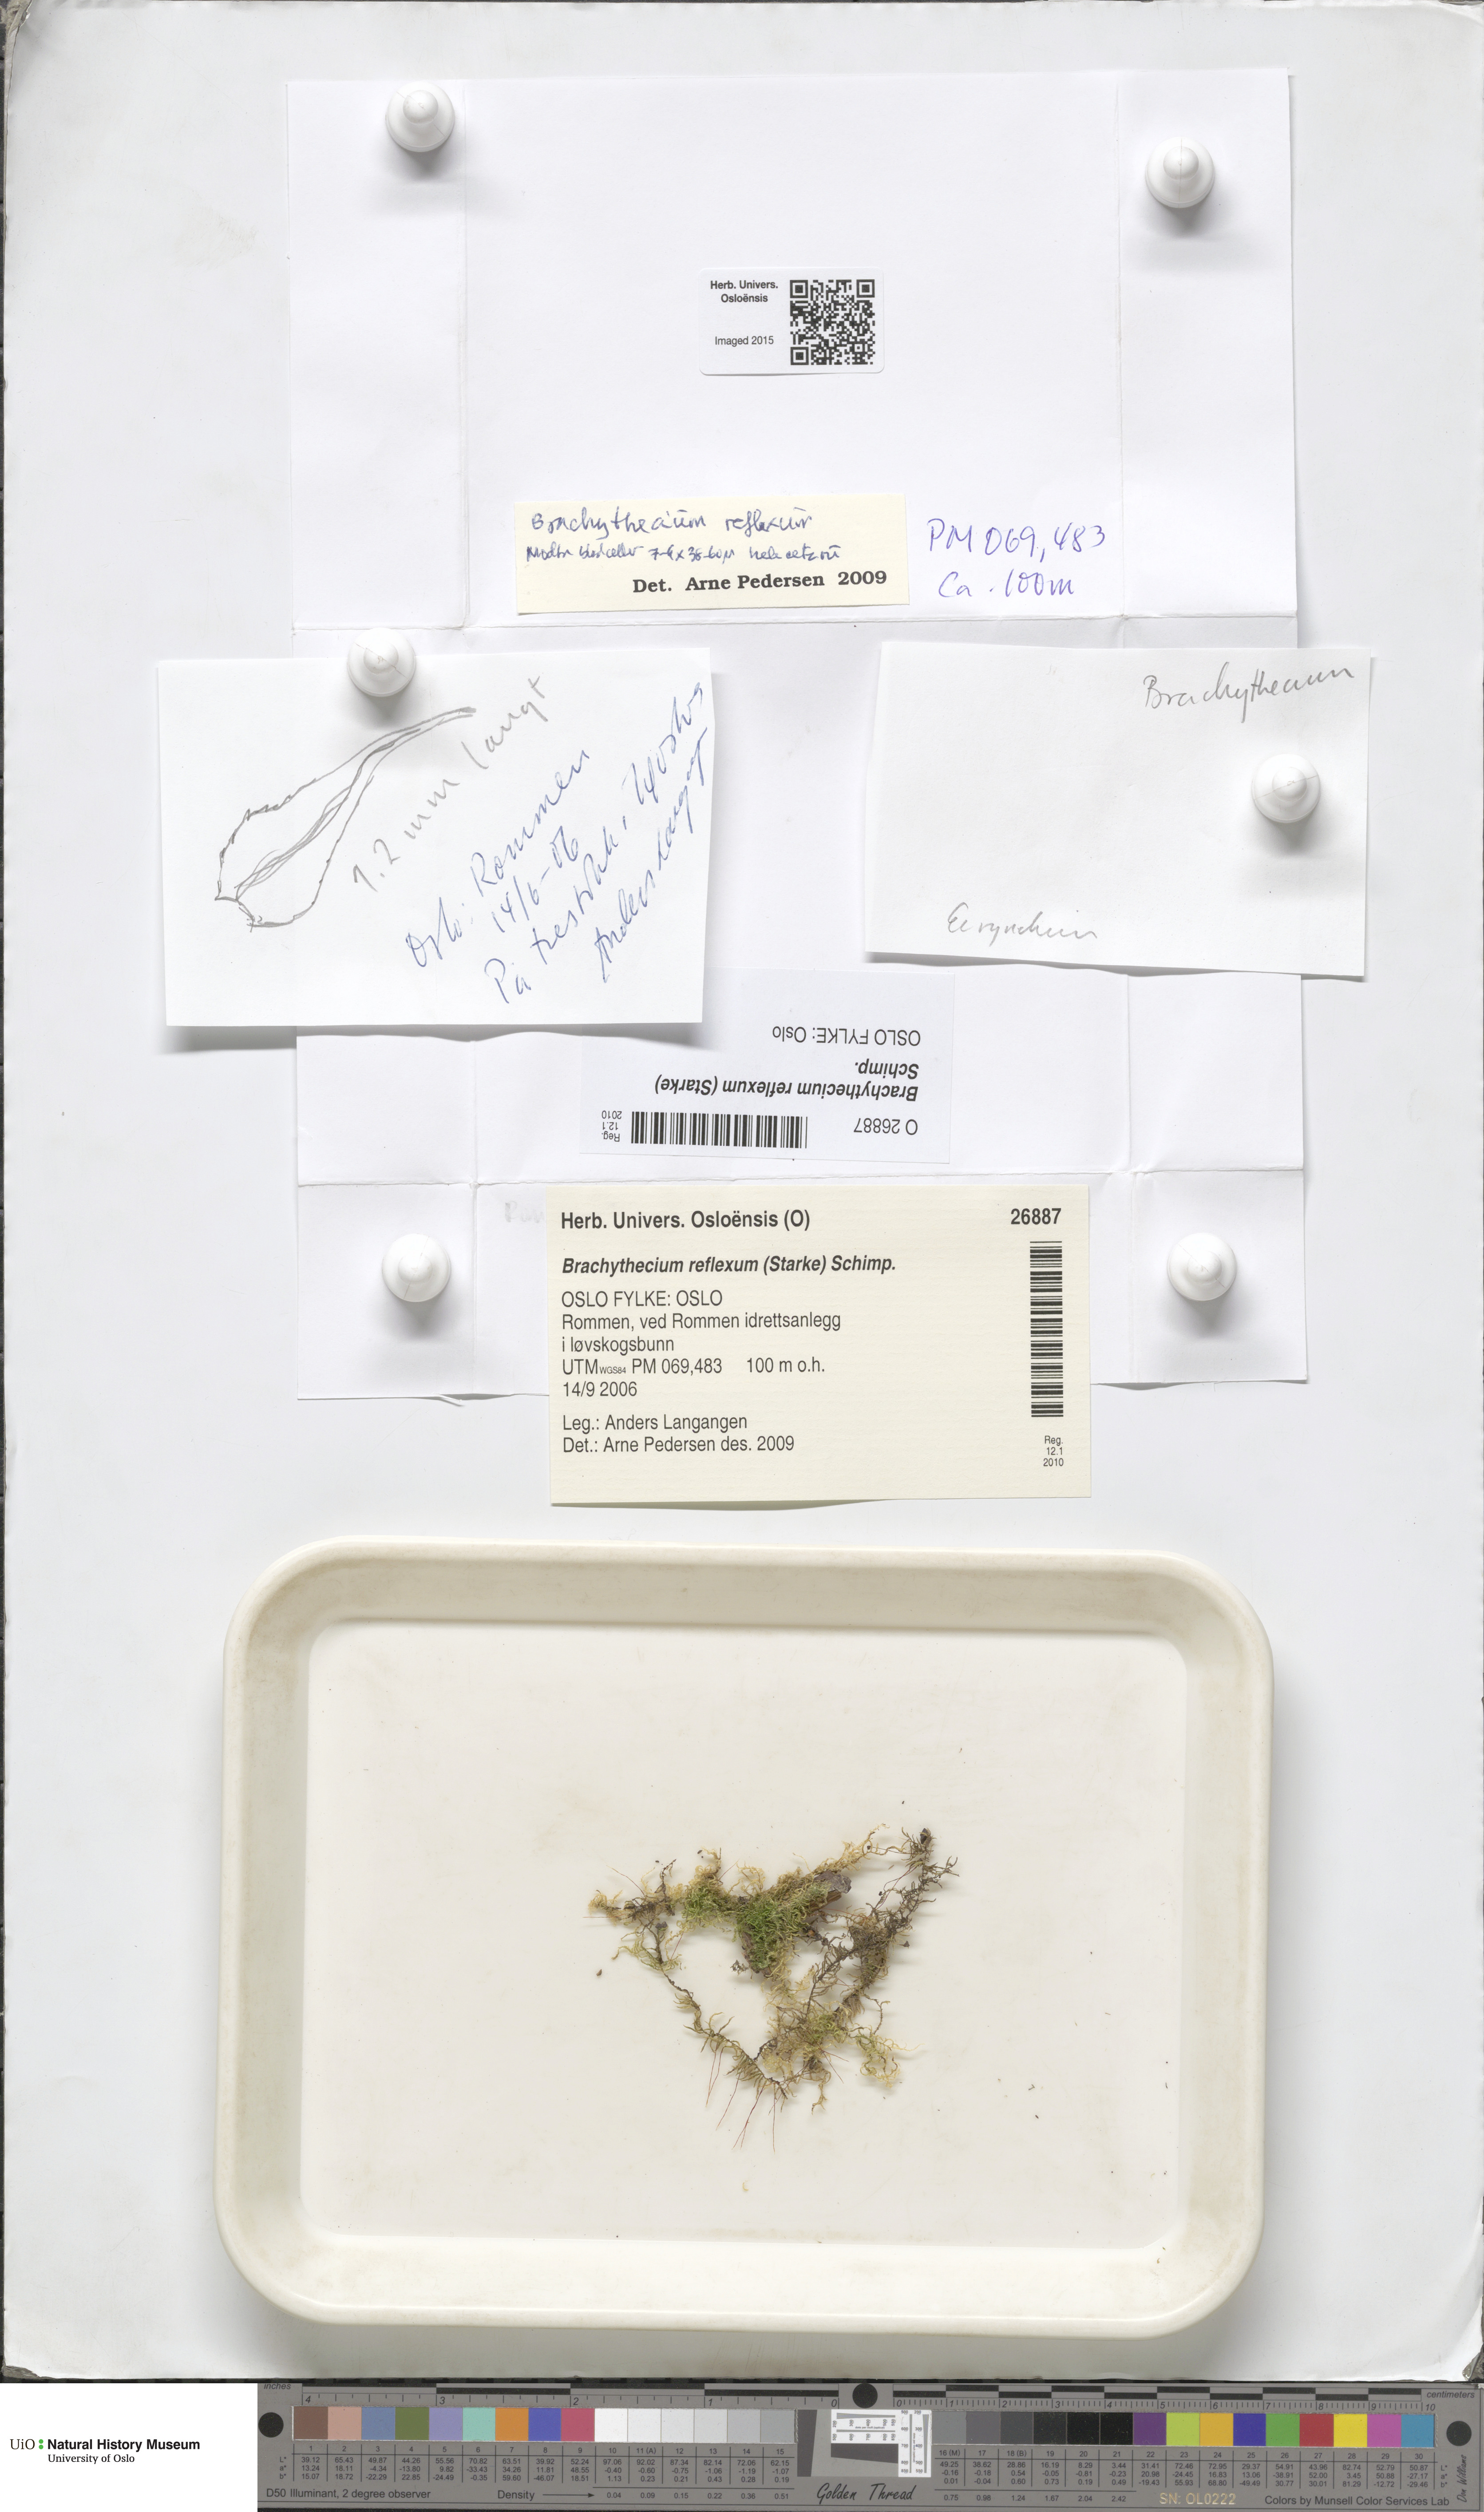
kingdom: Plantae
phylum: Bryophyta
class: Bryopsida
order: Hypnales
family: Brachytheciaceae
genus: Sciuro-hypnum
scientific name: Sciuro-hypnum reflexum
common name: Reflexed feather-moss
